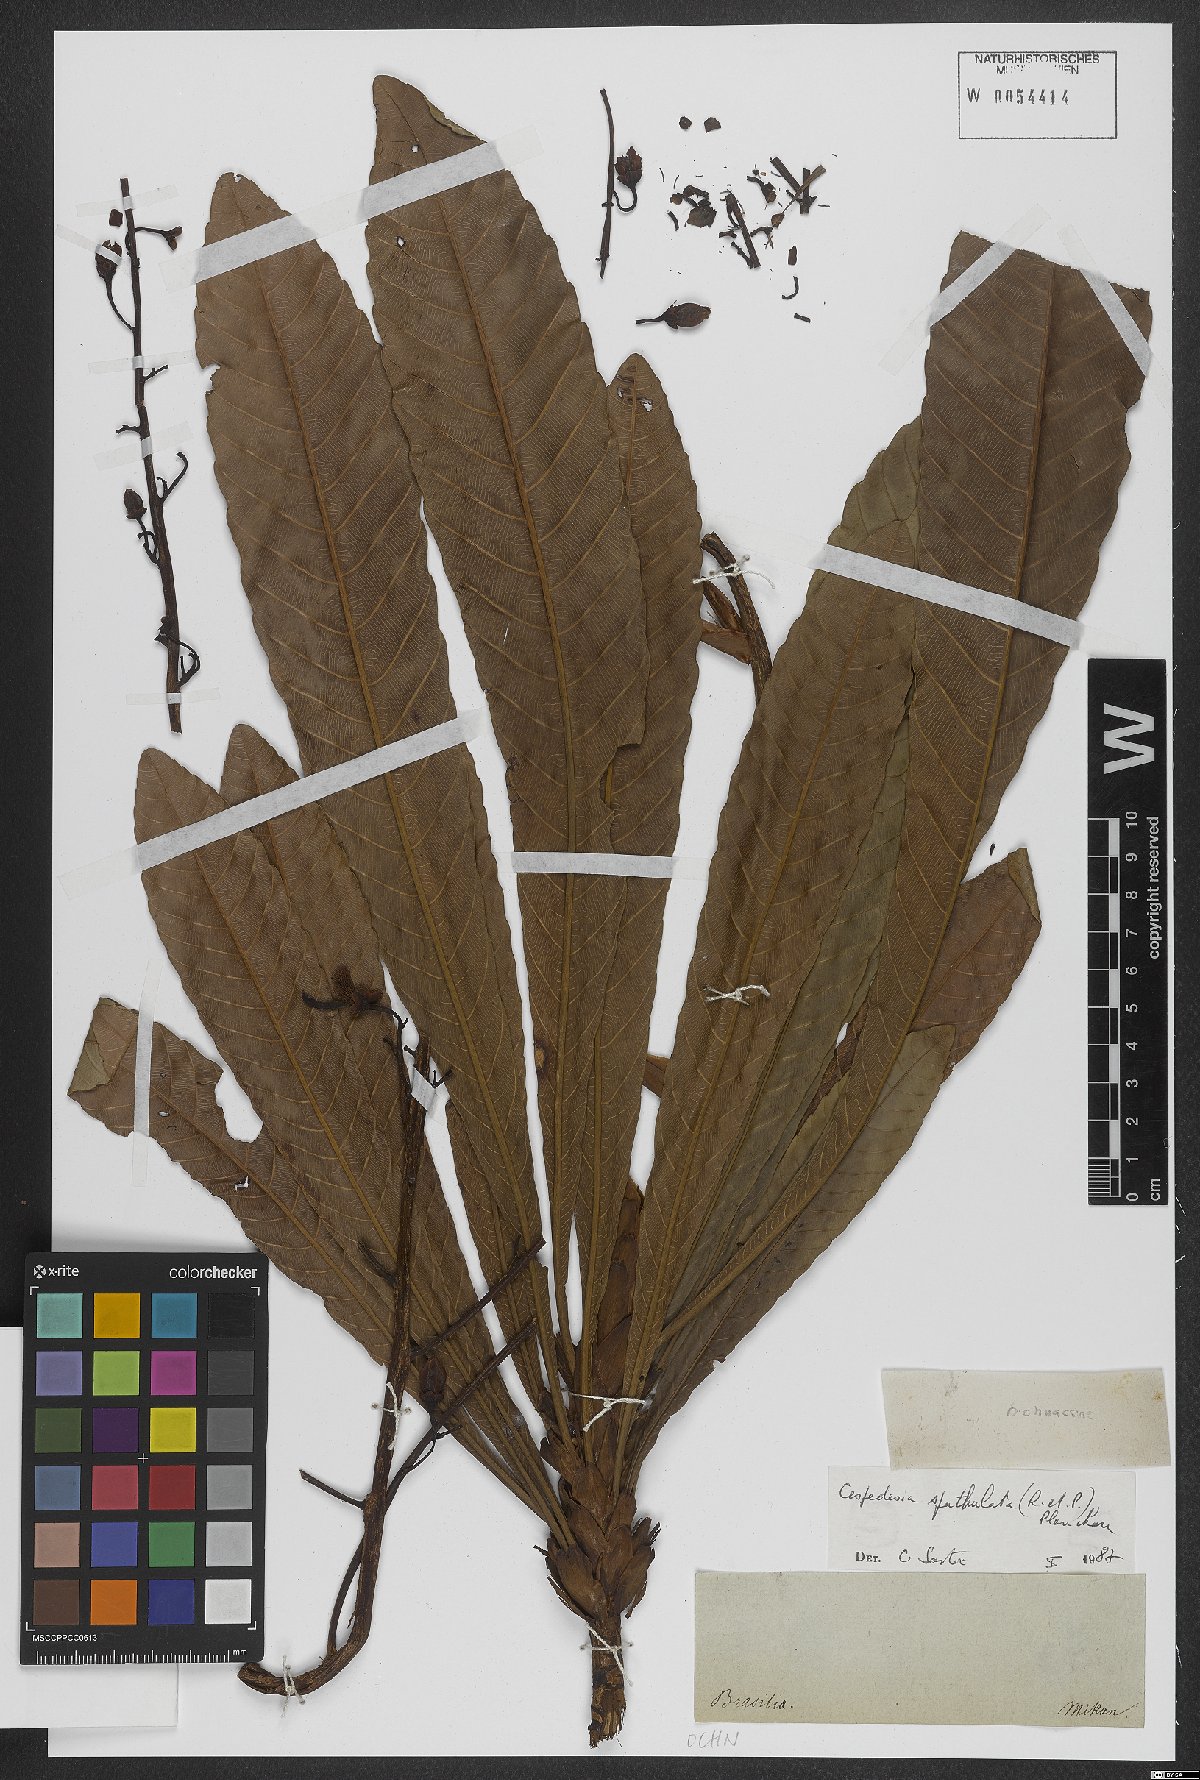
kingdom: Plantae
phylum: Tracheophyta
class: Magnoliopsida
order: Malpighiales
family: Ochnaceae
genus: Cespedesia
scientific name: Cespedesia spathulata
